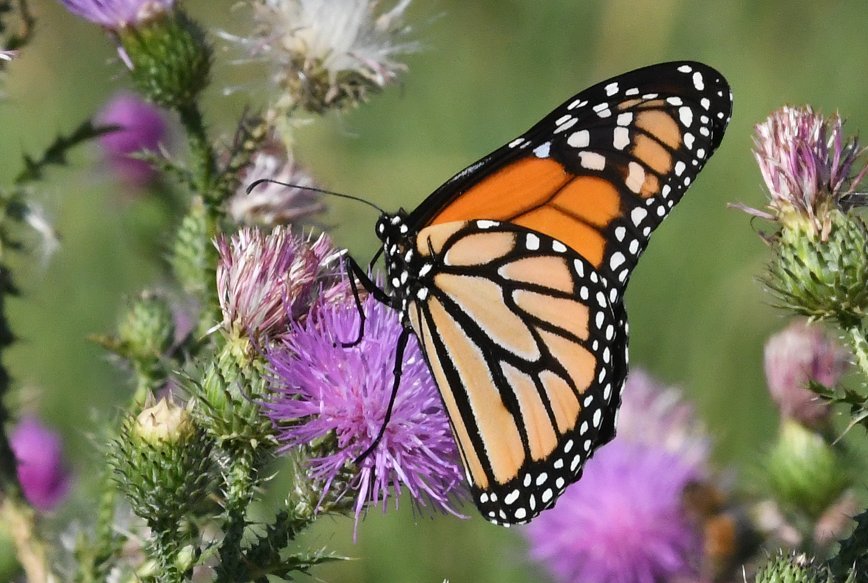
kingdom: Animalia
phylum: Arthropoda
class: Insecta
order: Lepidoptera
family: Nymphalidae
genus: Danaus
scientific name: Danaus plexippus
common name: Monarch
